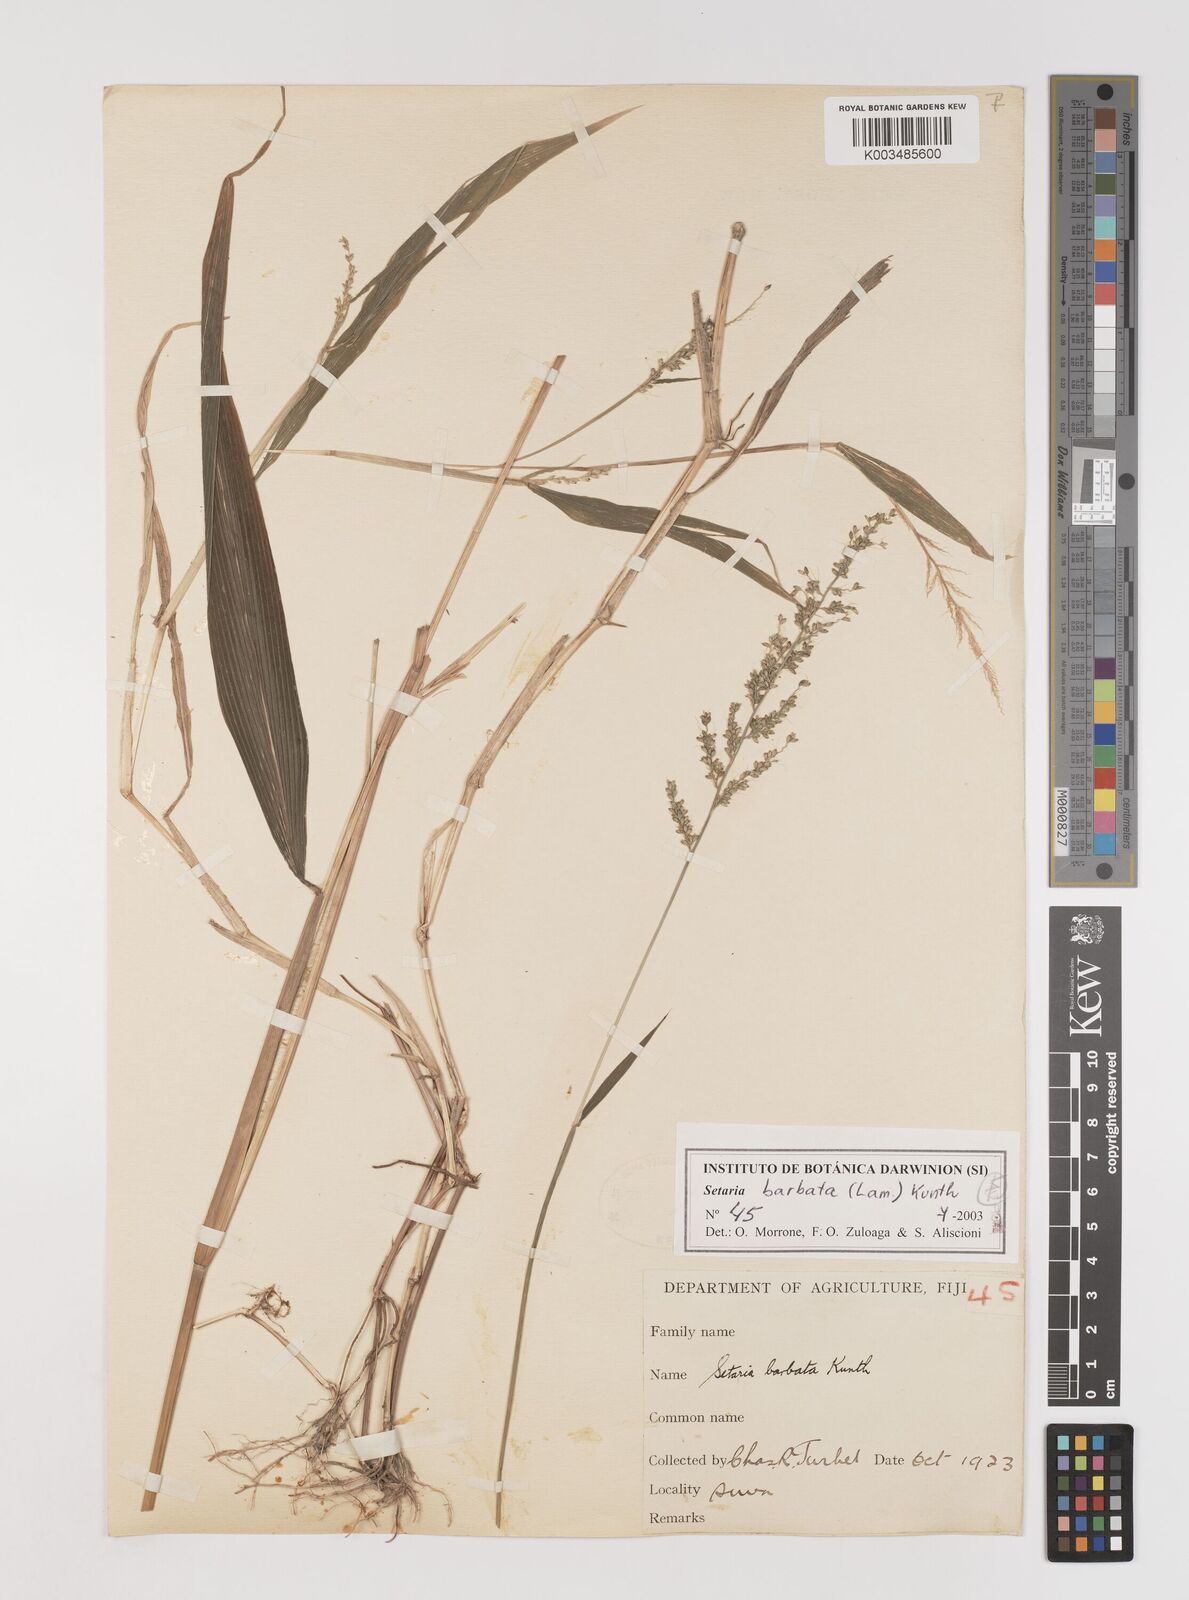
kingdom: Plantae
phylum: Tracheophyta
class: Liliopsida
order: Poales
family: Poaceae
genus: Setaria
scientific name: Setaria barbata
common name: East indian bristlegrass
